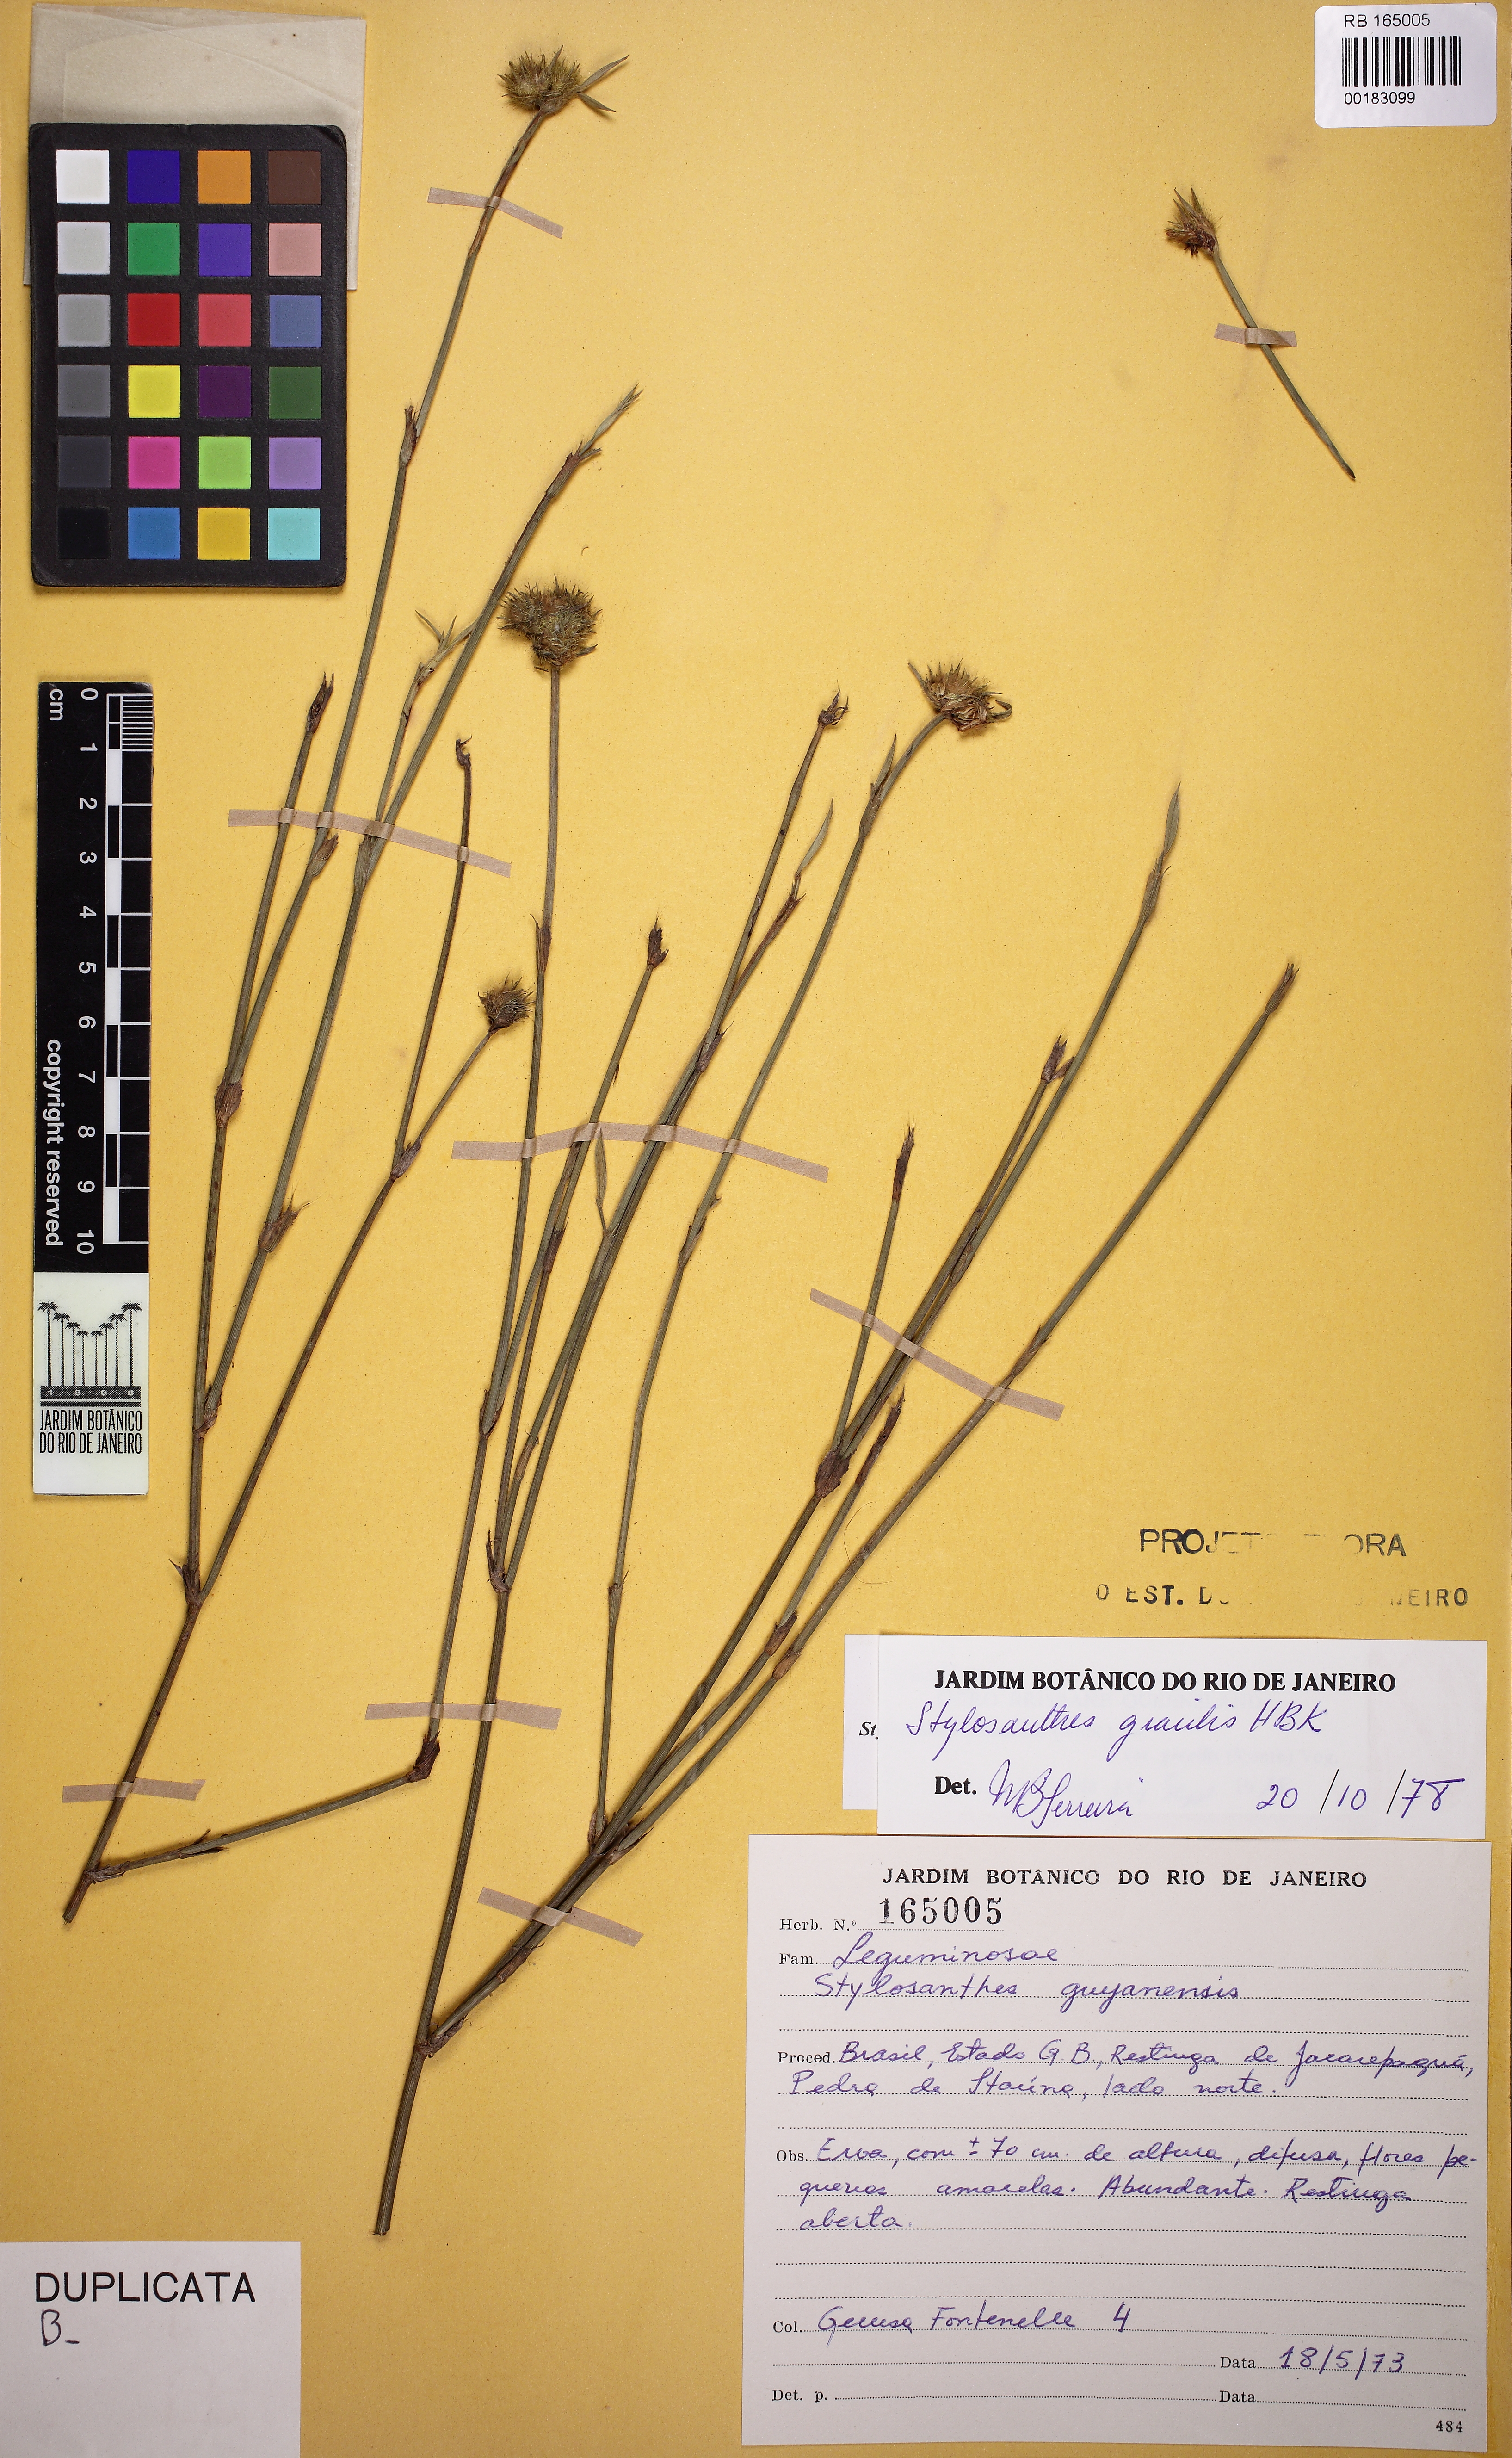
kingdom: Plantae
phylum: Tracheophyta
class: Magnoliopsida
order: Fabales
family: Fabaceae
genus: Stylosanthes
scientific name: Stylosanthes guianensis
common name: Pencil flower
